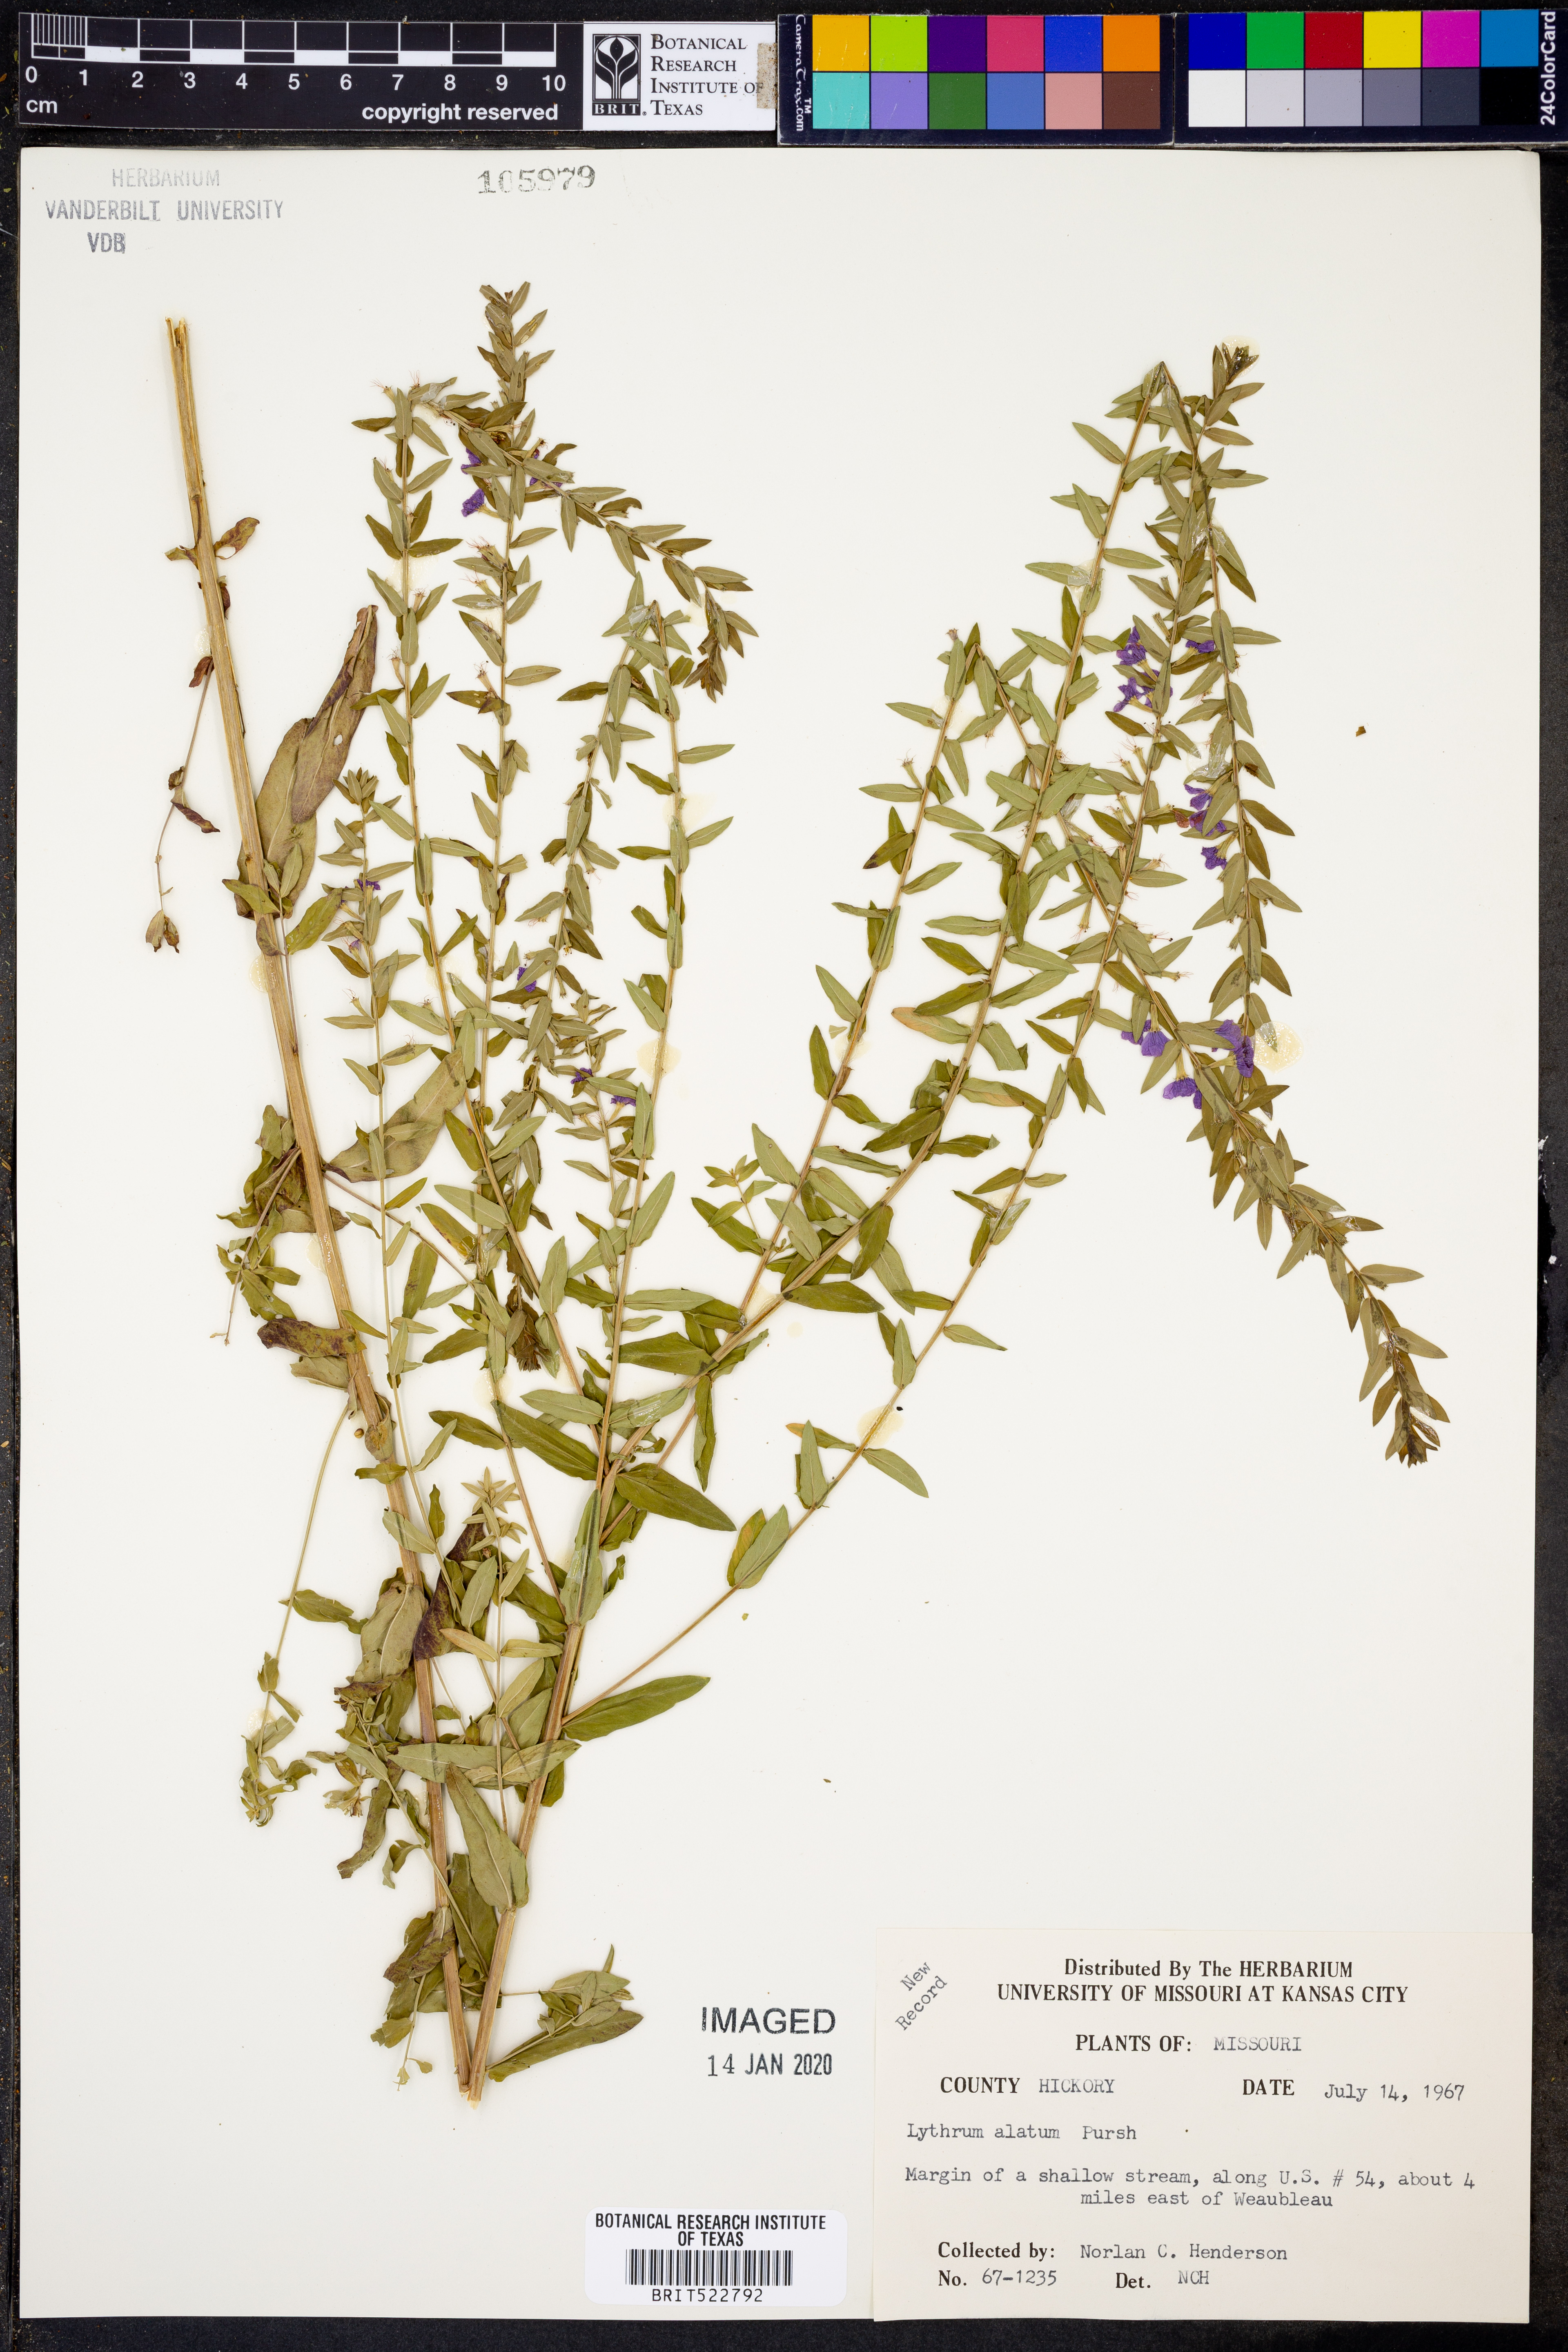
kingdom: Plantae
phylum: Tracheophyta
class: Magnoliopsida
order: Myrtales
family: Lythraceae
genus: Lythrum
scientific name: Lythrum alatum
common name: Winged loosestrife
